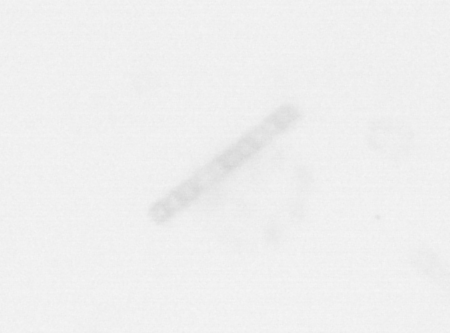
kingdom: Chromista
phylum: Ochrophyta
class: Bacillariophyceae
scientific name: Bacillariophyceae
